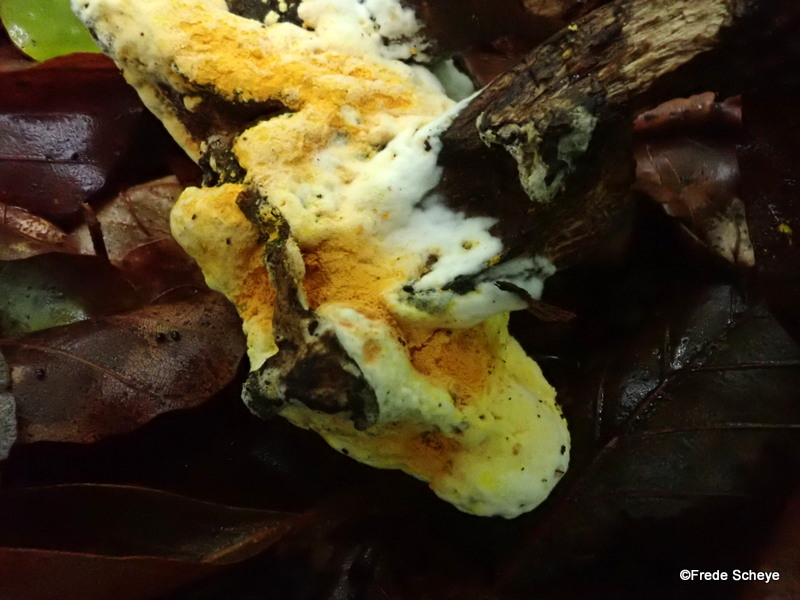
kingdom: Fungi
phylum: Ascomycota
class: Sordariomycetes
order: Hypocreales
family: Hypocreaceae
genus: Hypomyces
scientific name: Hypomyces microspermus
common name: dværgrørhat-snylteskorpe
